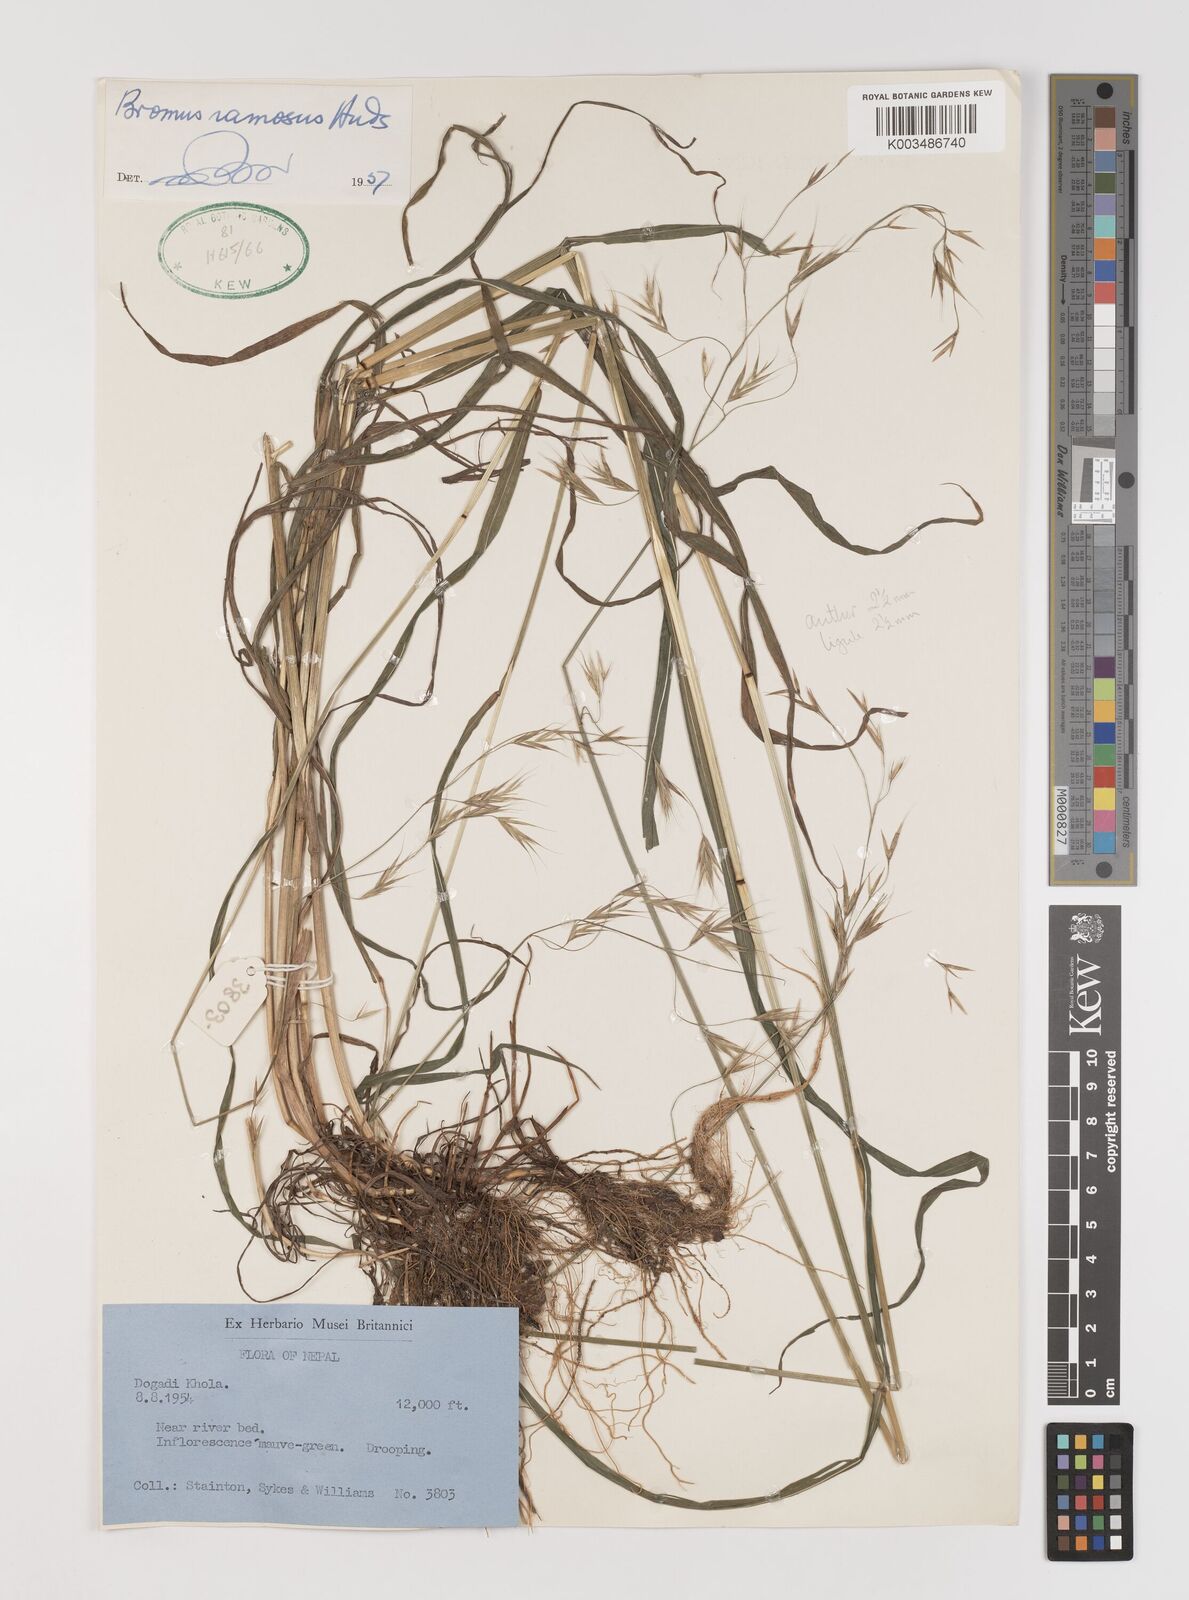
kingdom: Plantae
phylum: Tracheophyta
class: Liliopsida
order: Poales
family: Poaceae
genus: Brachypodium
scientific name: Brachypodium retusum
